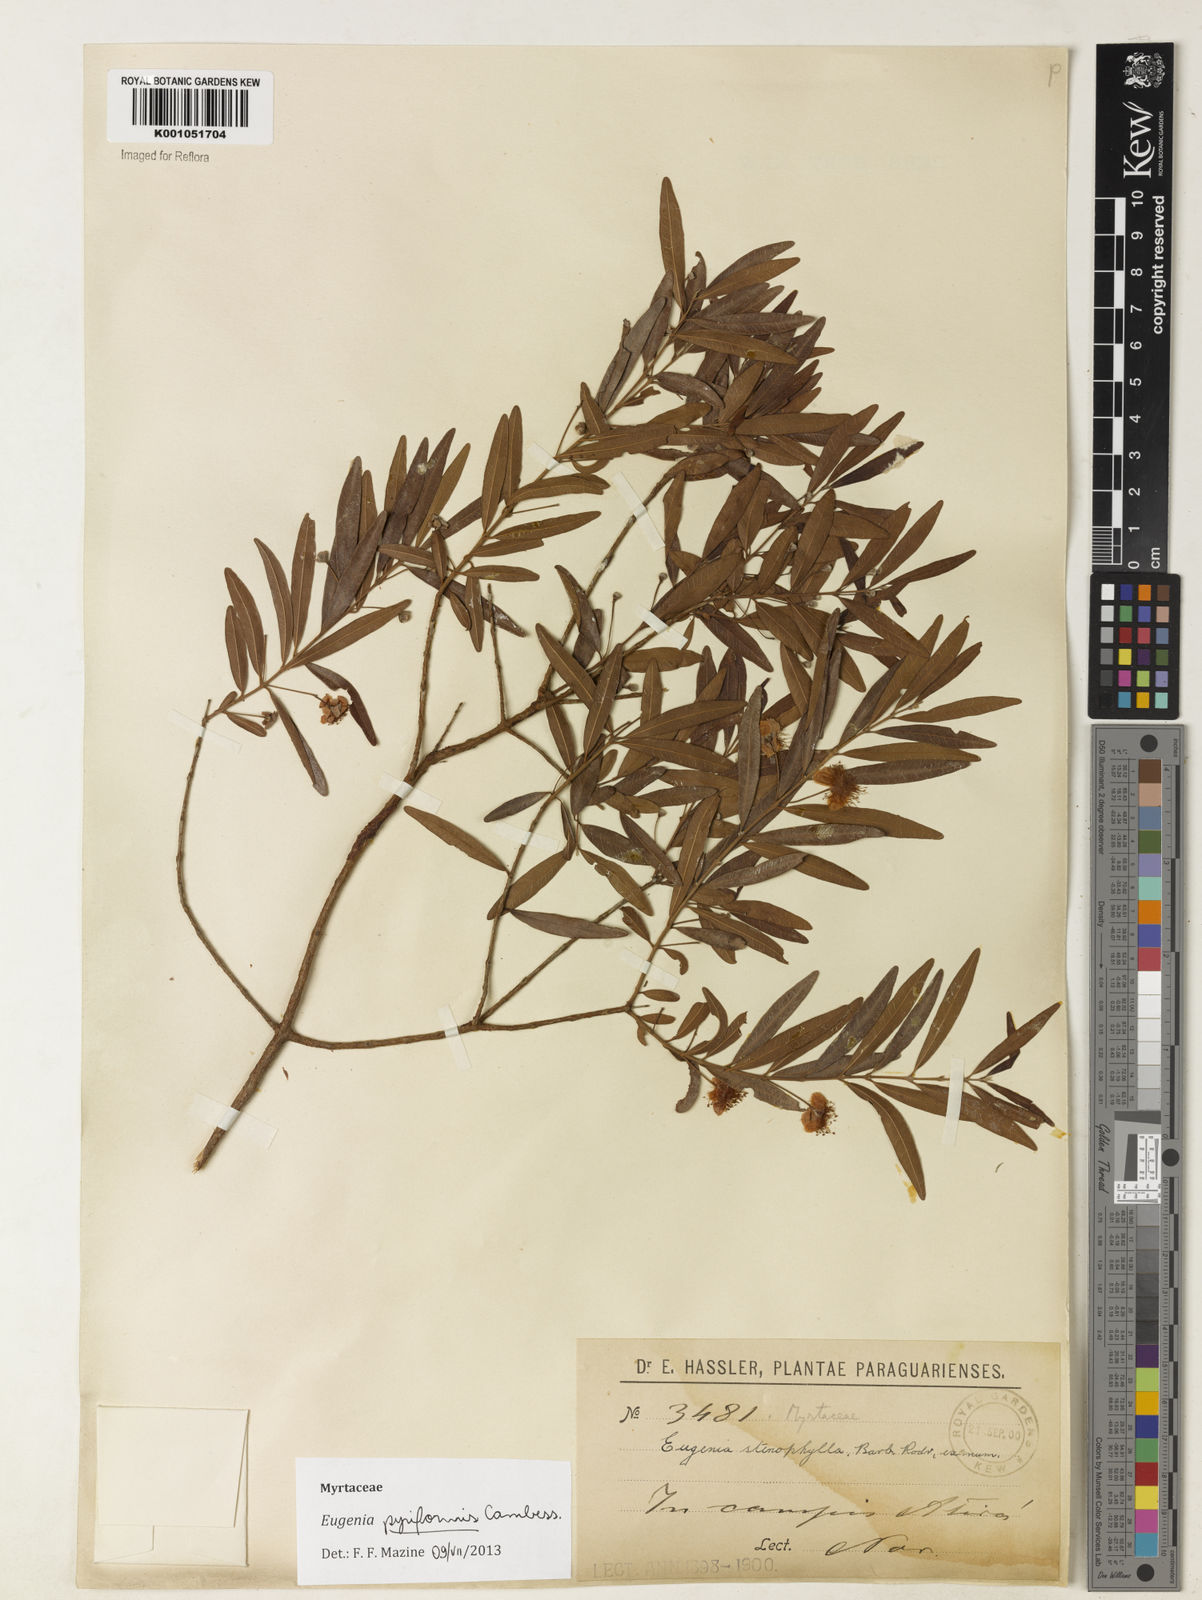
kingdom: Plantae
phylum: Tracheophyta
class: Magnoliopsida
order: Myrtales
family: Myrtaceae
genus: Eugenia
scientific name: Eugenia pyriformis
